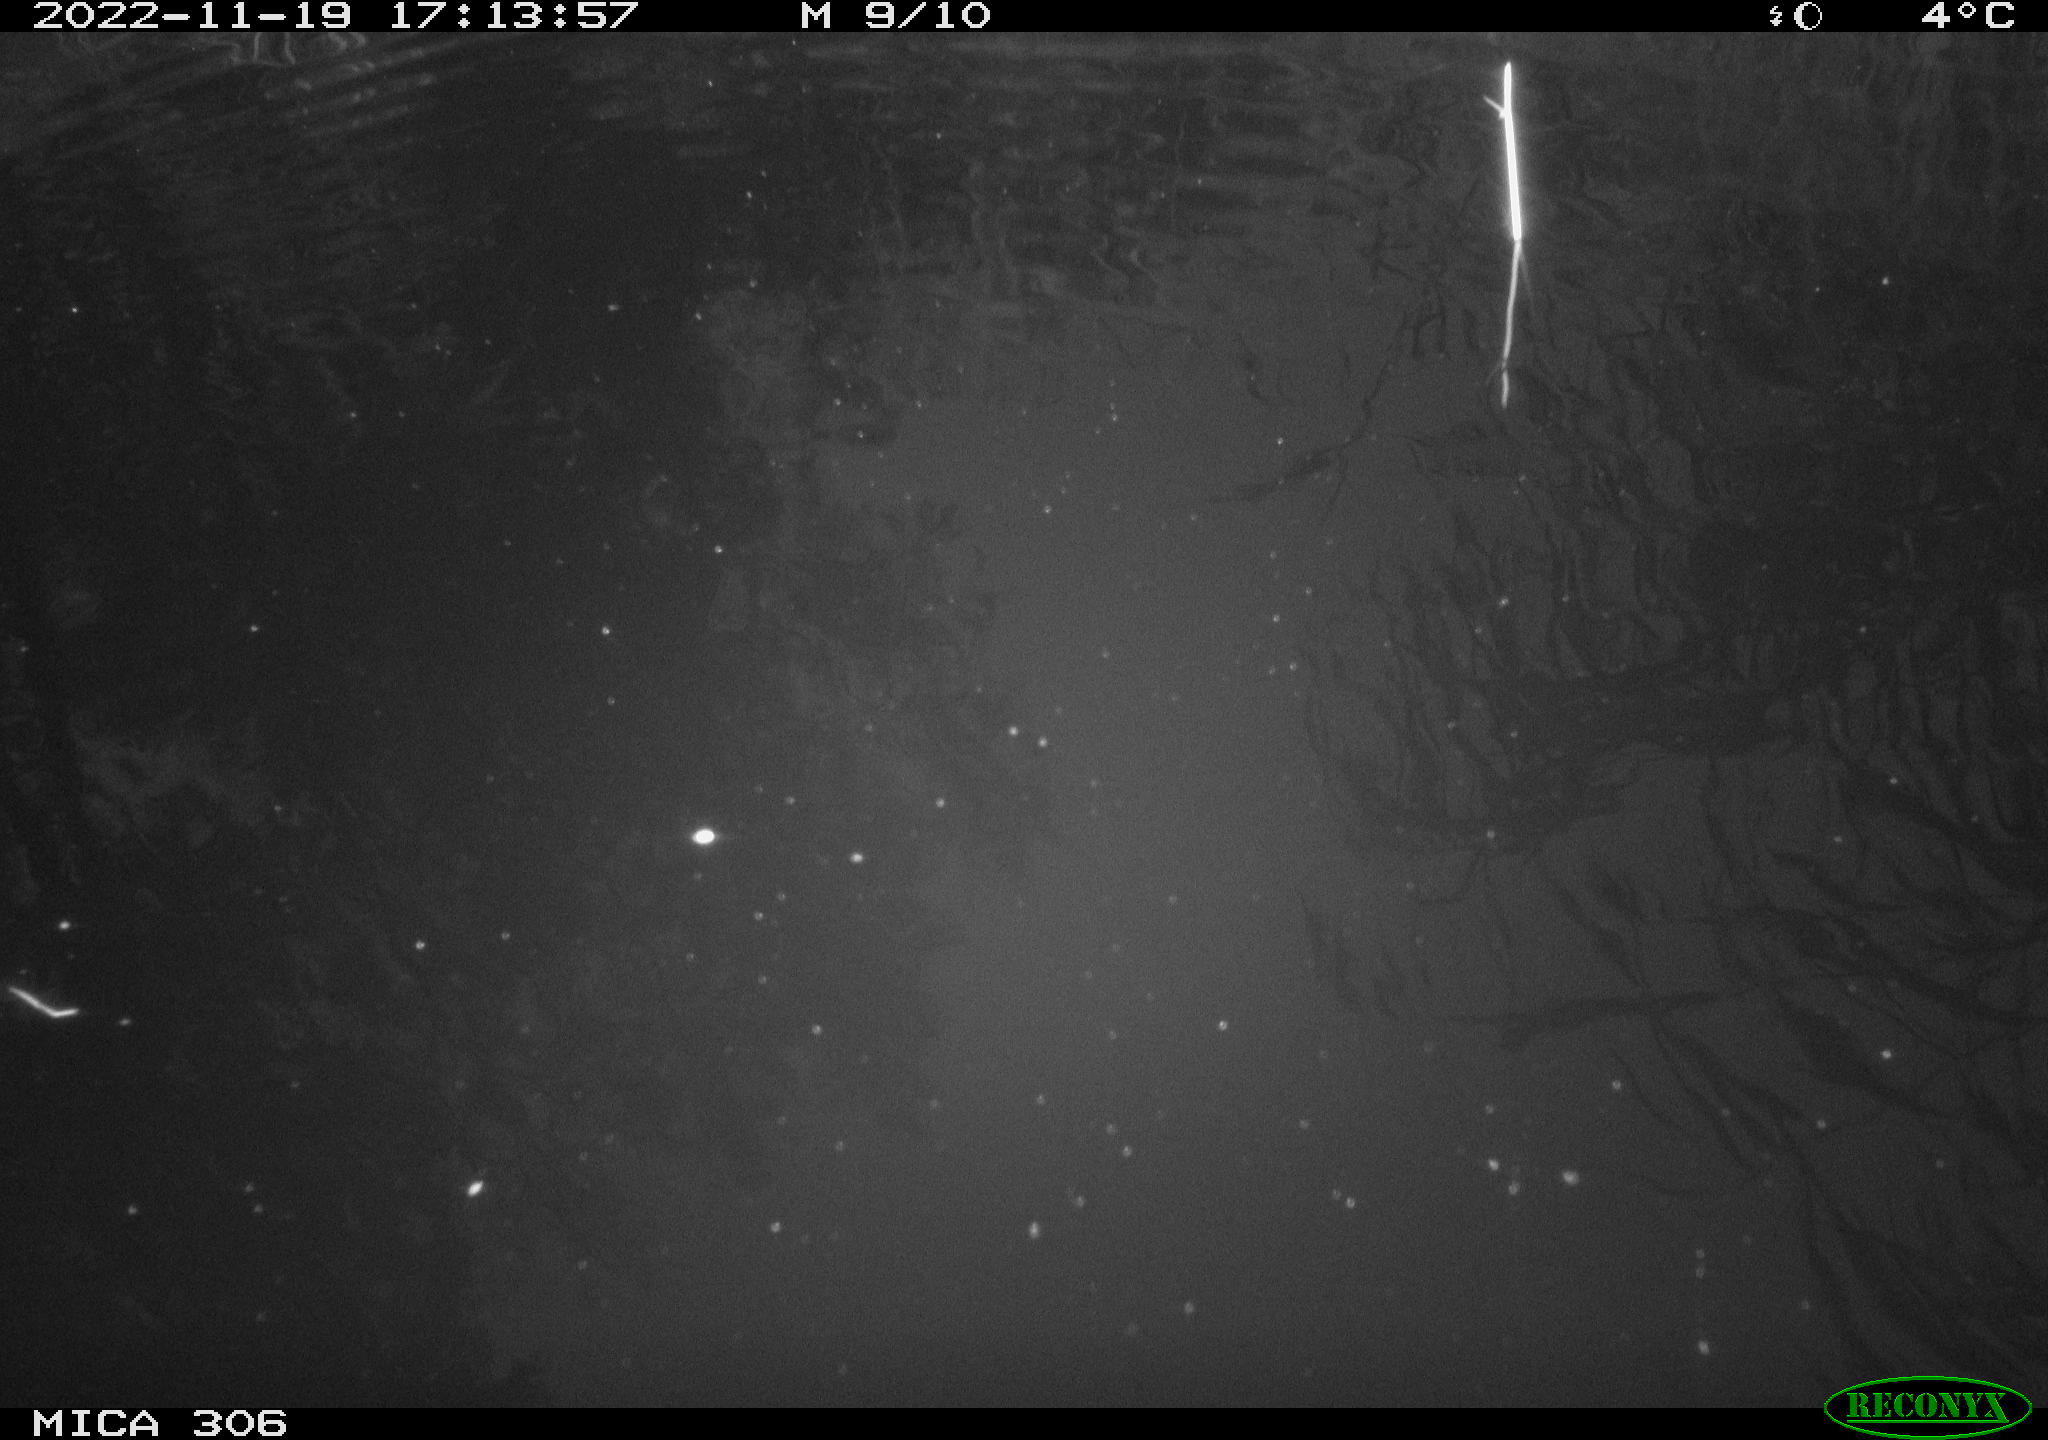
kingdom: Animalia
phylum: Chordata
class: Mammalia
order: Rodentia
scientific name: Rodentia
